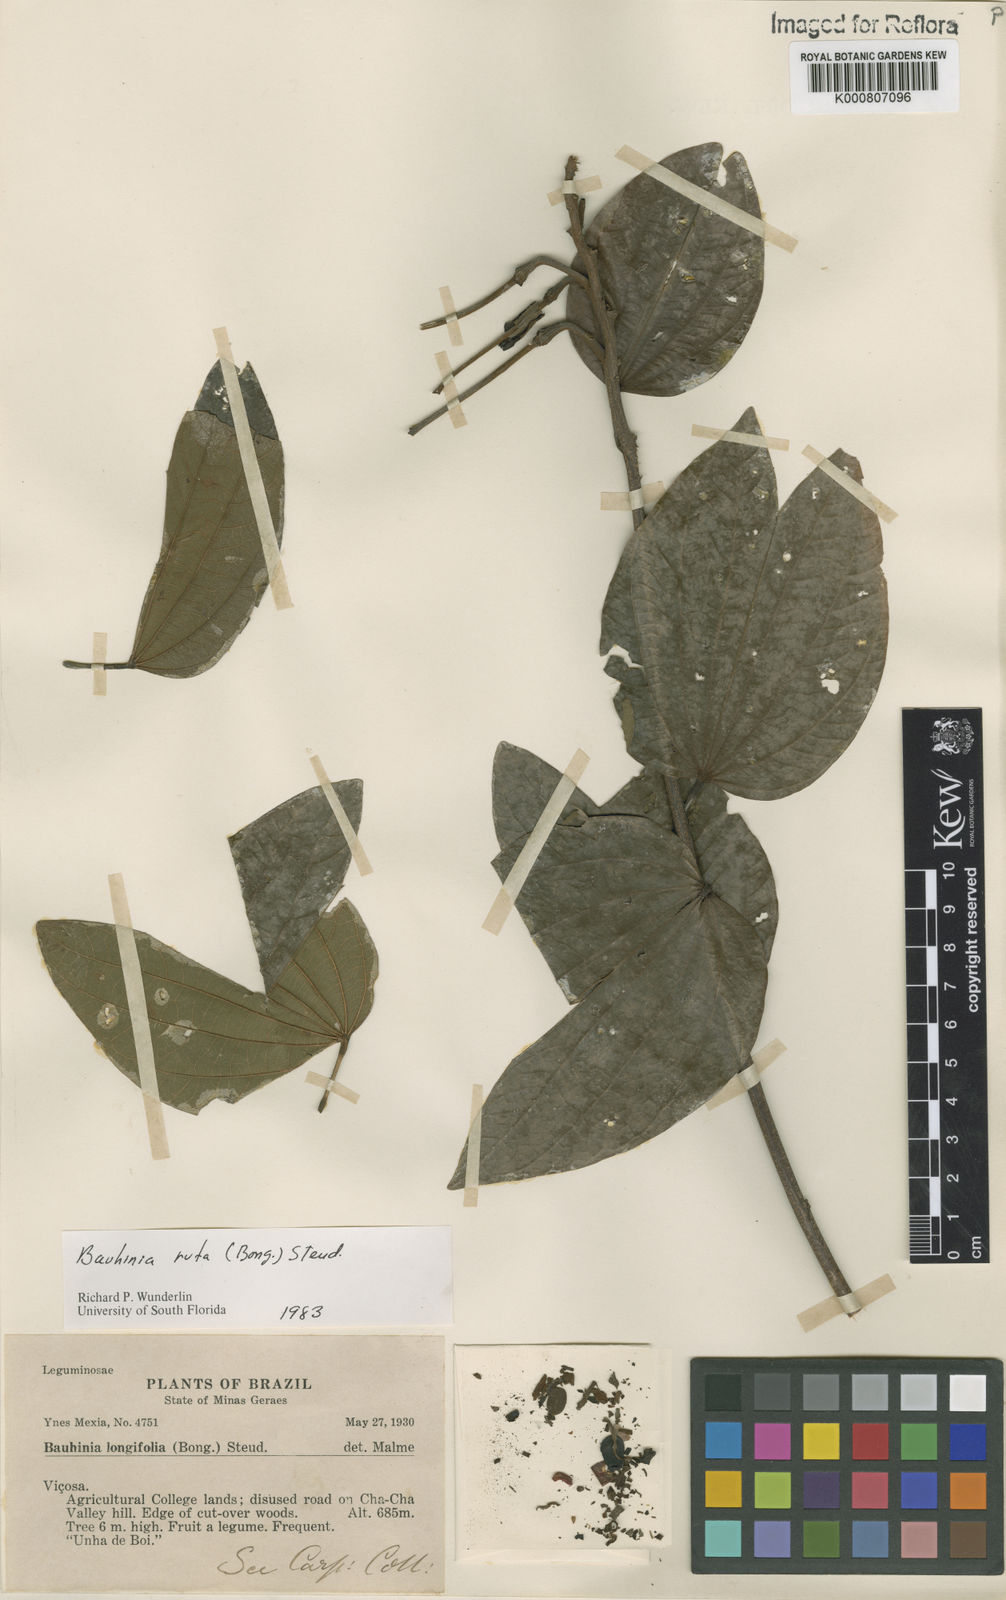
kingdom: Plantae
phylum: Tracheophyta
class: Magnoliopsida
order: Fabales
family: Fabaceae
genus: Bauhinia
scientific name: Bauhinia rufa
